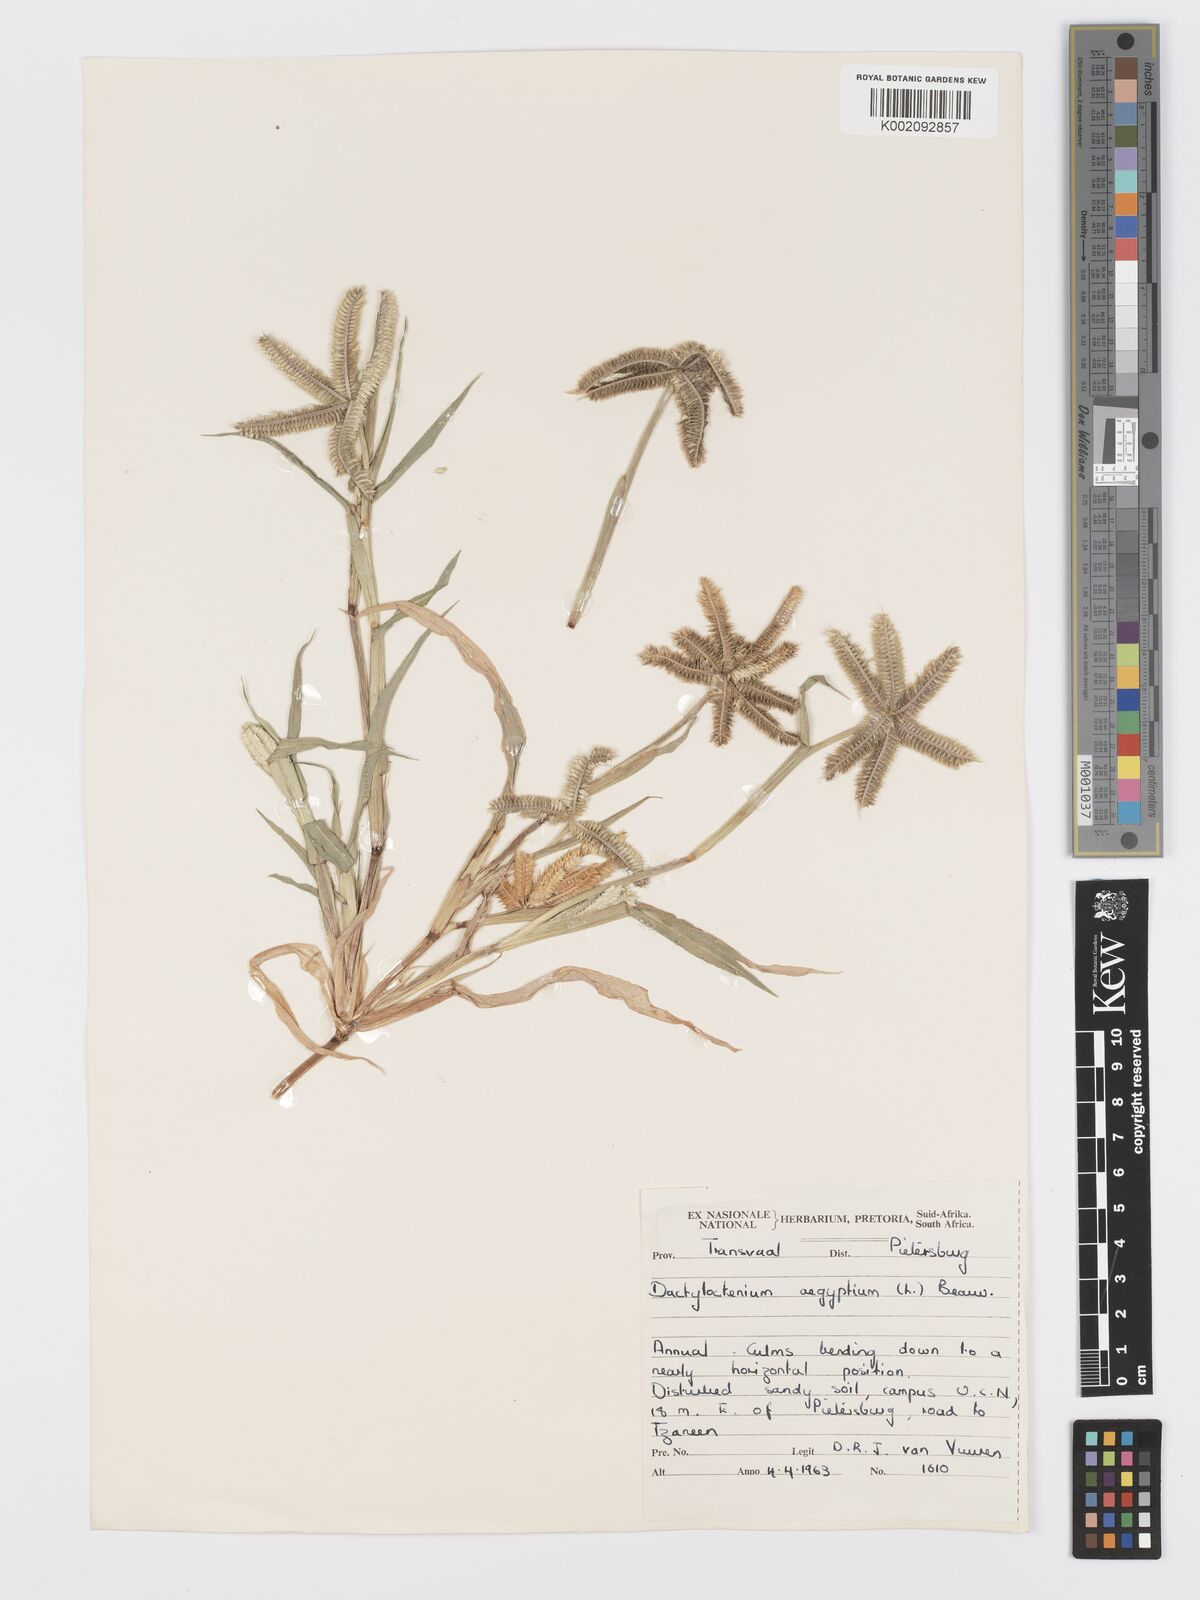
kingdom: Plantae
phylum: Tracheophyta
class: Liliopsida
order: Poales
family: Poaceae
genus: Dactyloctenium
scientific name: Dactyloctenium aegyptium
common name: Egyptian grass
